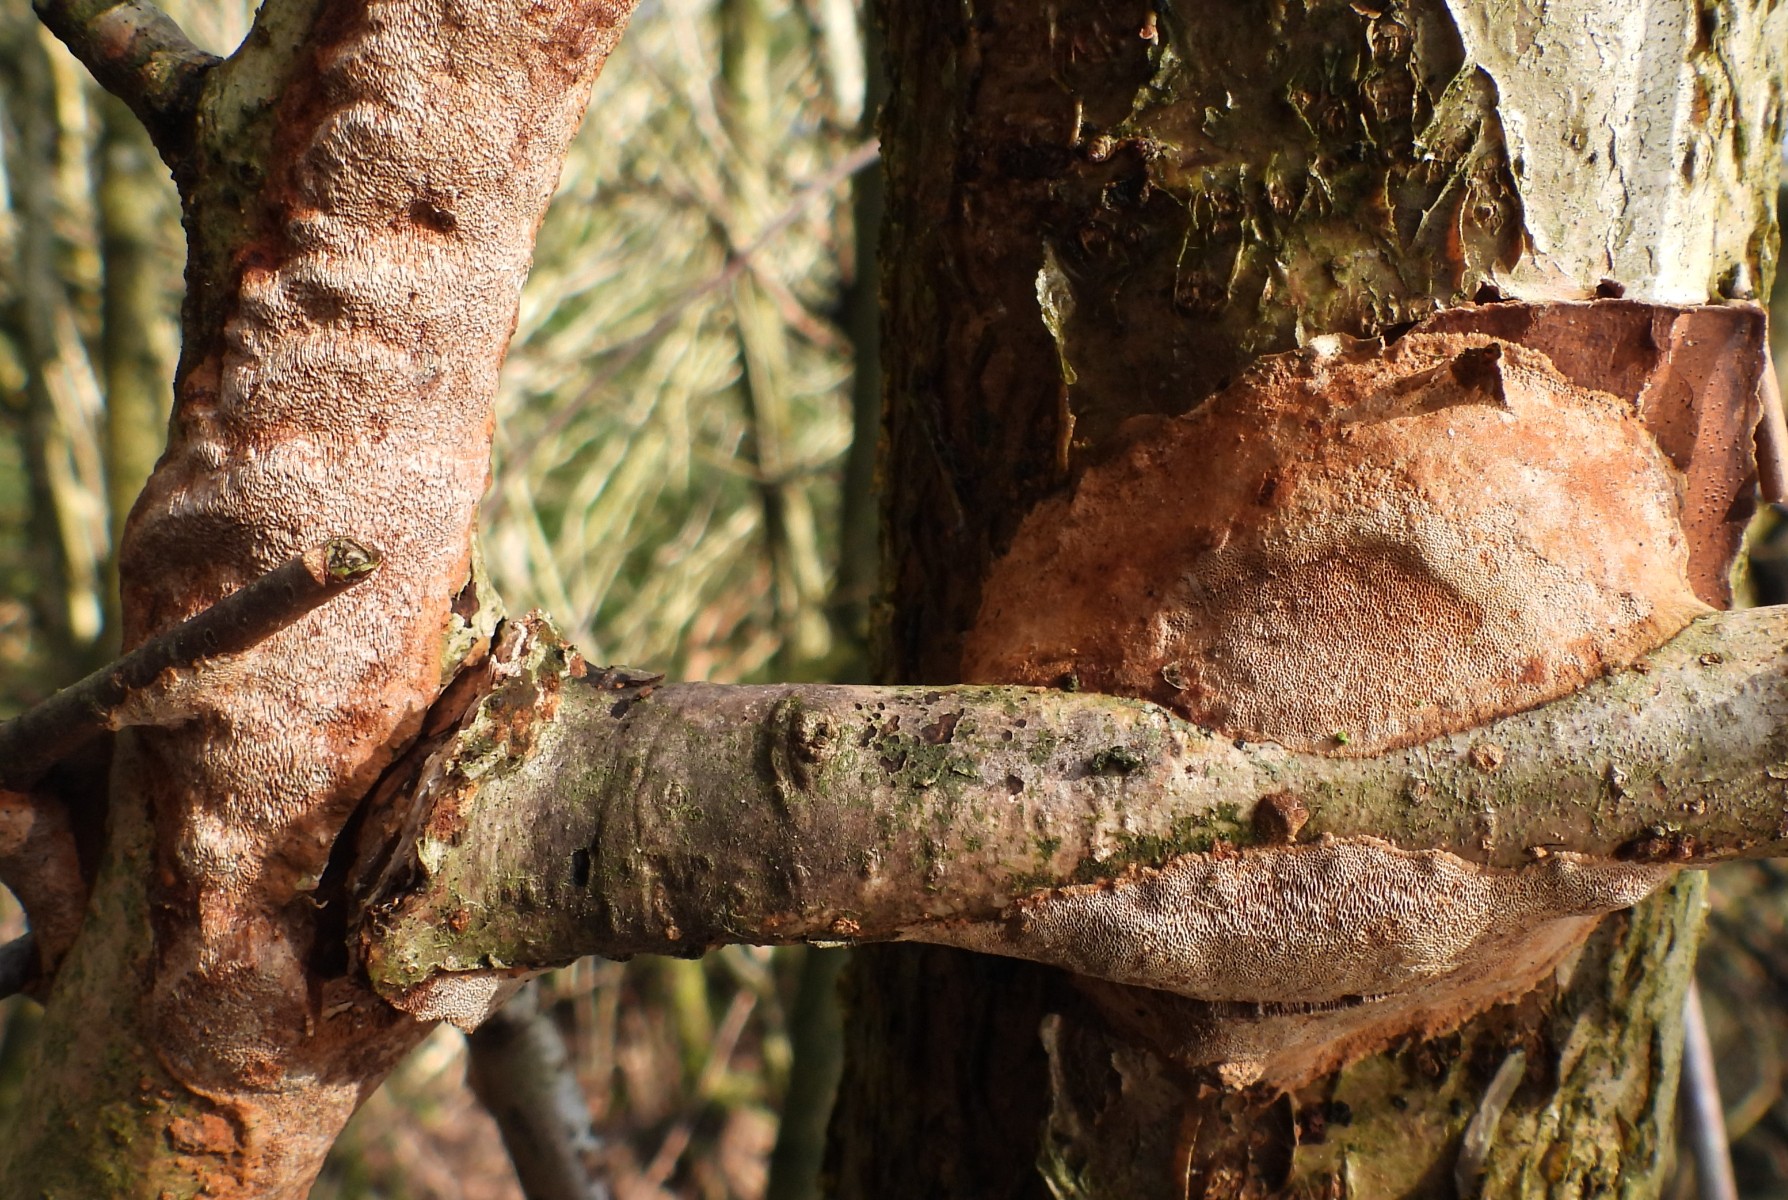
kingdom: Fungi
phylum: Basidiomycota
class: Agaricomycetes
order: Hymenochaetales
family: Hymenochaetaceae
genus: Fuscoporia
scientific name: Fuscoporia ferrea
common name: skorpe-ildporesvamp
